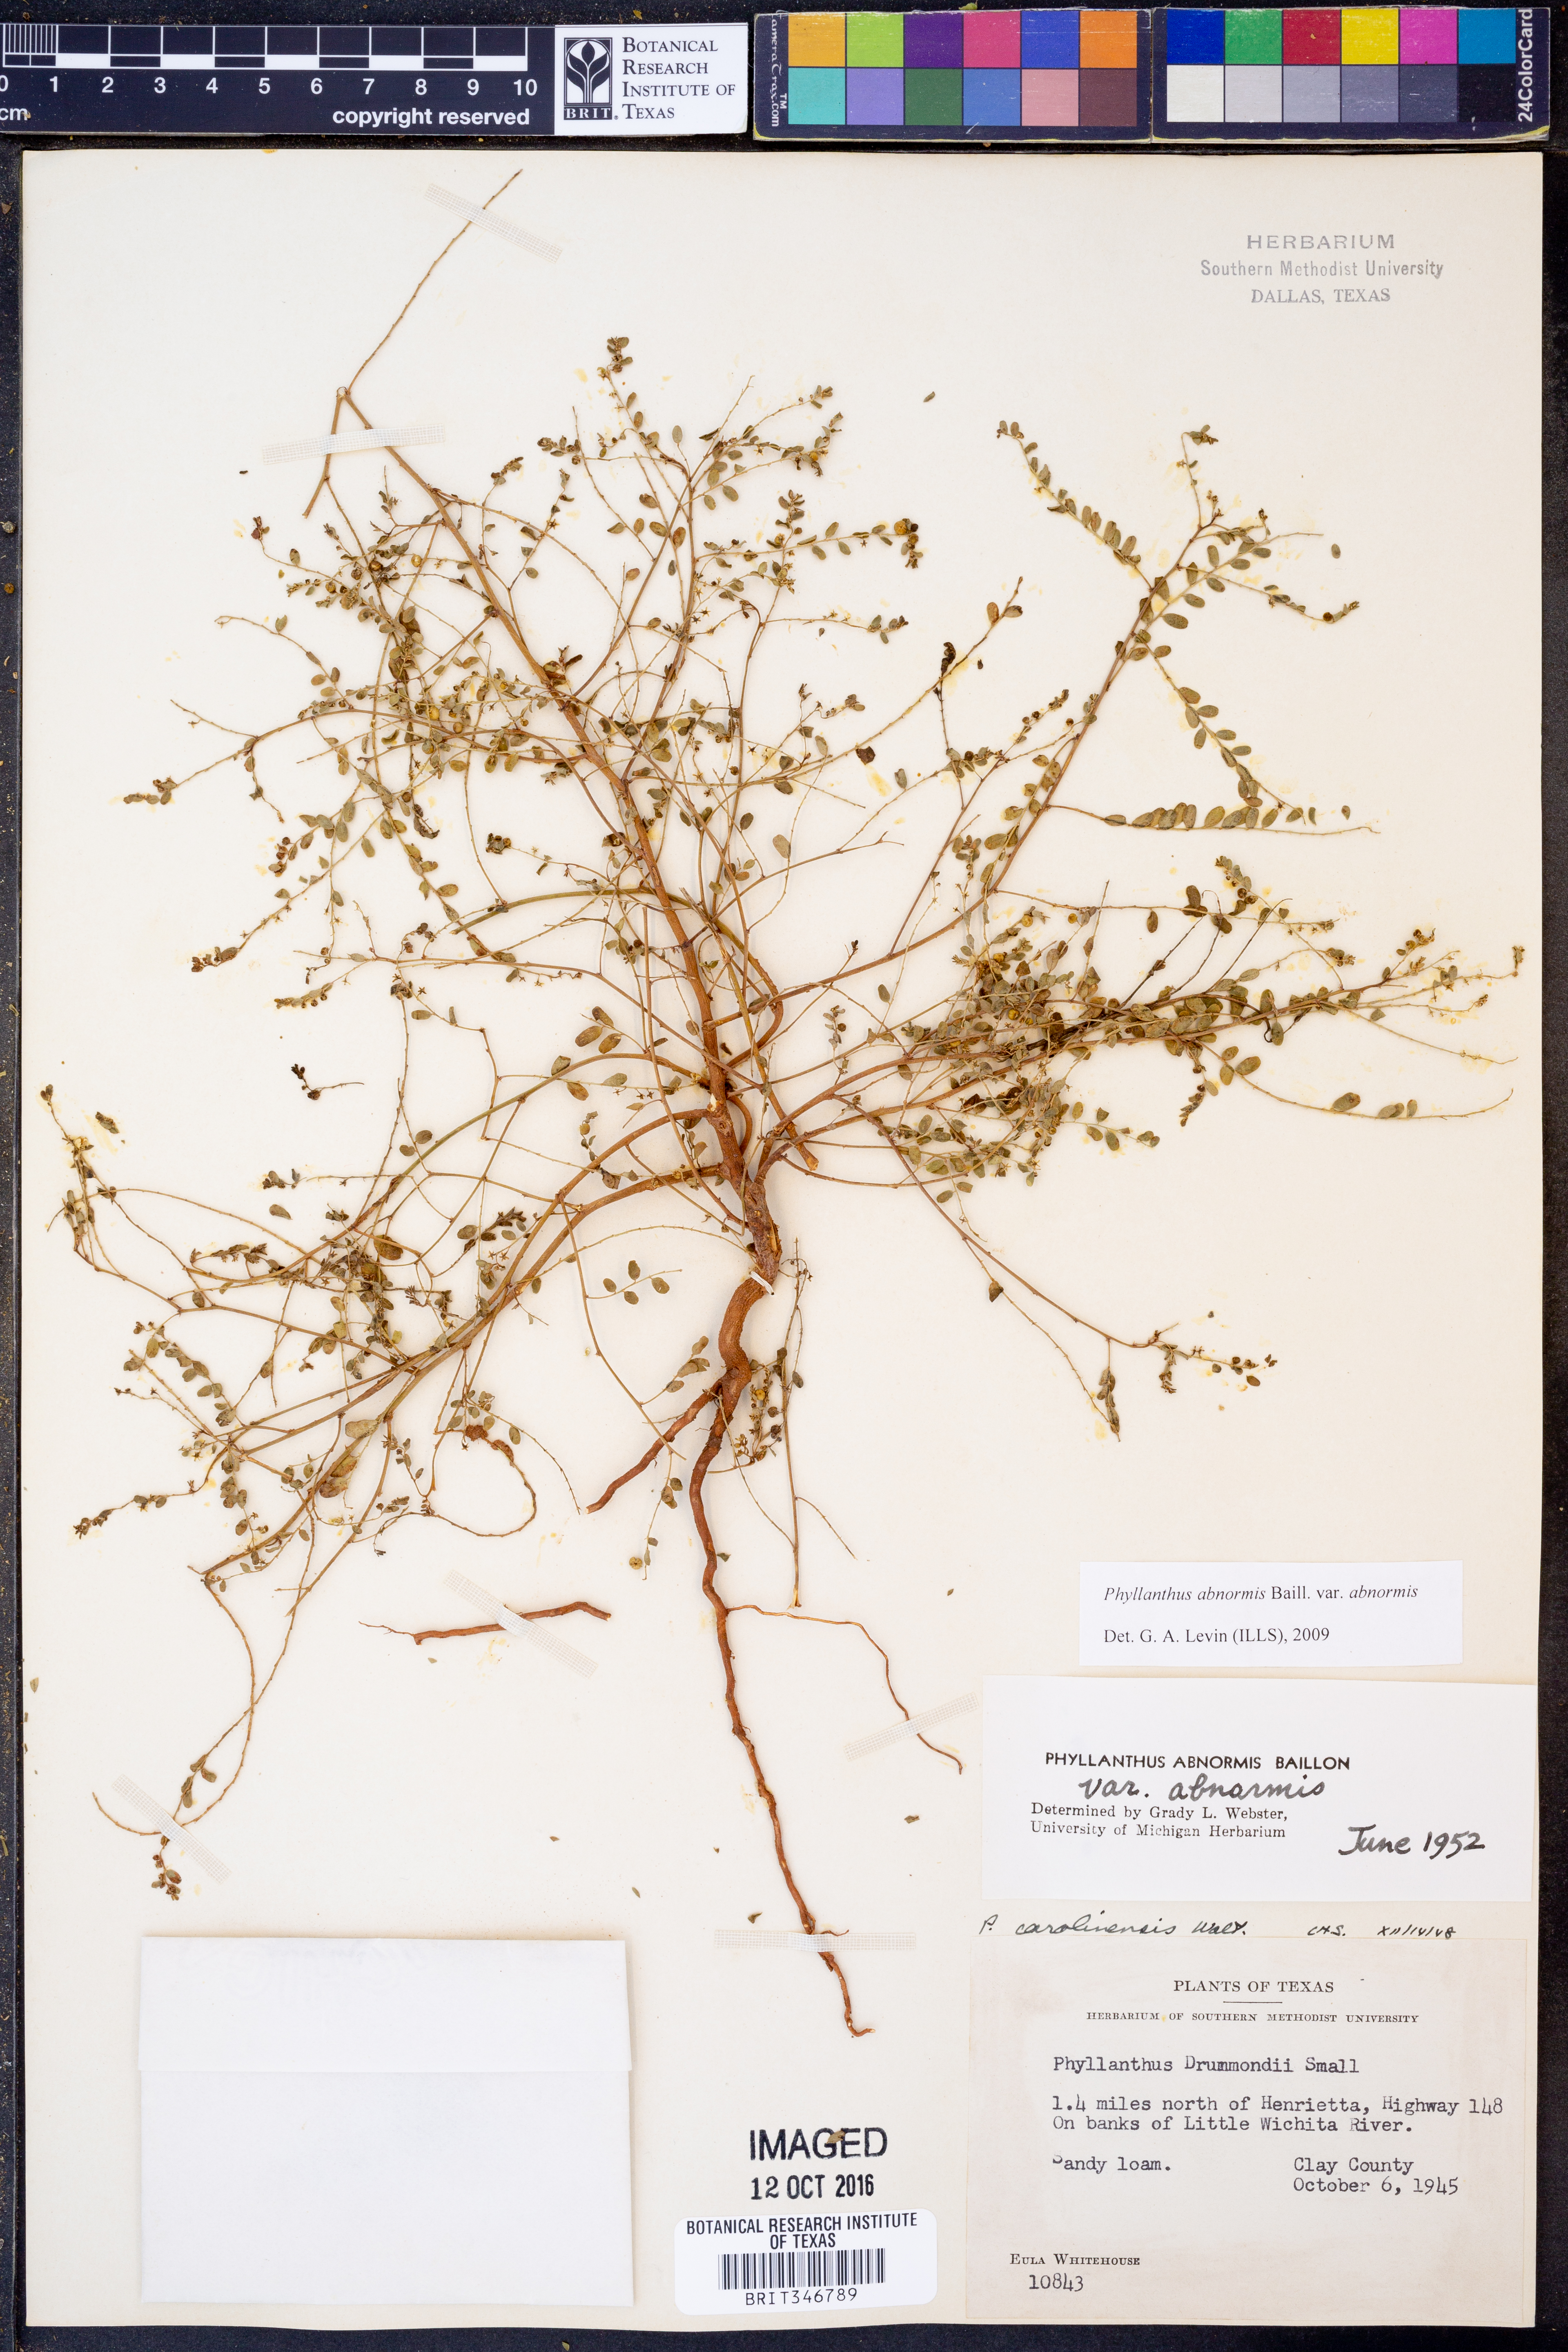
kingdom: Plantae
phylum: Tracheophyta
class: Magnoliopsida
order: Malpighiales
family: Phyllanthaceae
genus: Phyllanthus
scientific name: Phyllanthus abnormis
